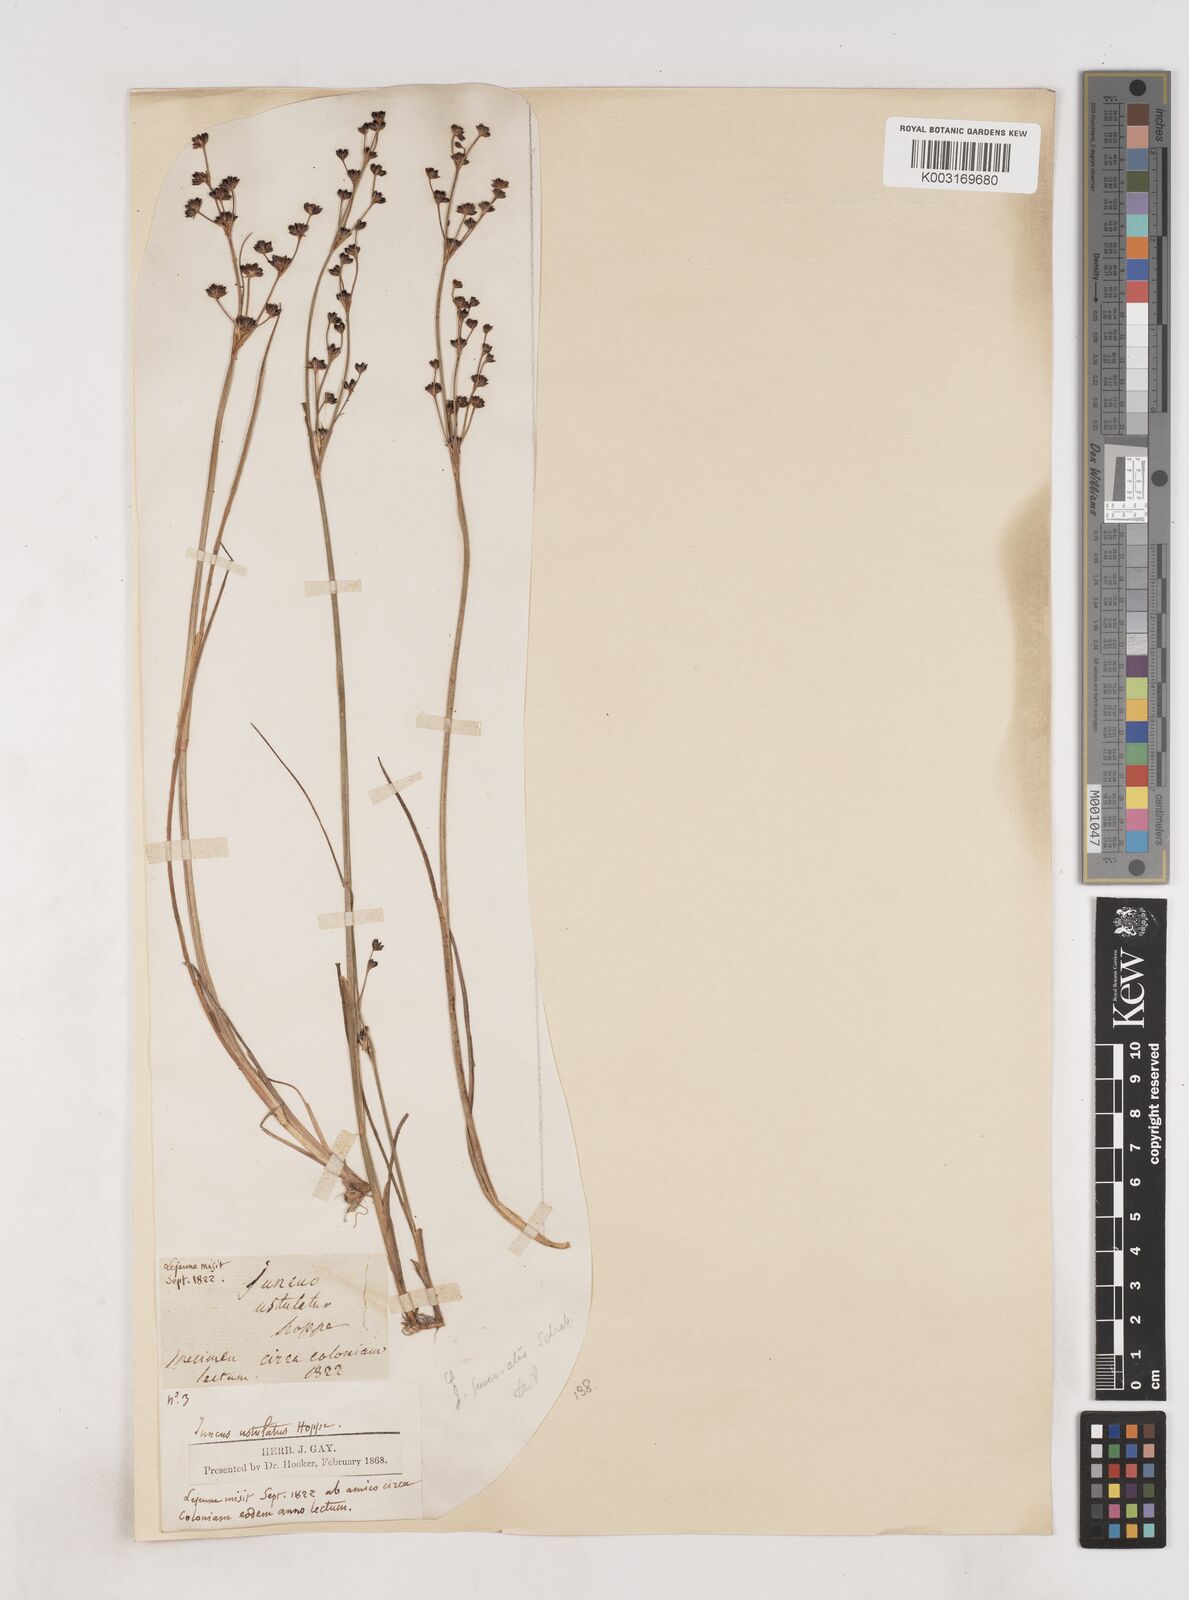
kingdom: Plantae
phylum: Tracheophyta
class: Liliopsida
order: Poales
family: Juncaceae
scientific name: Juncaceae
